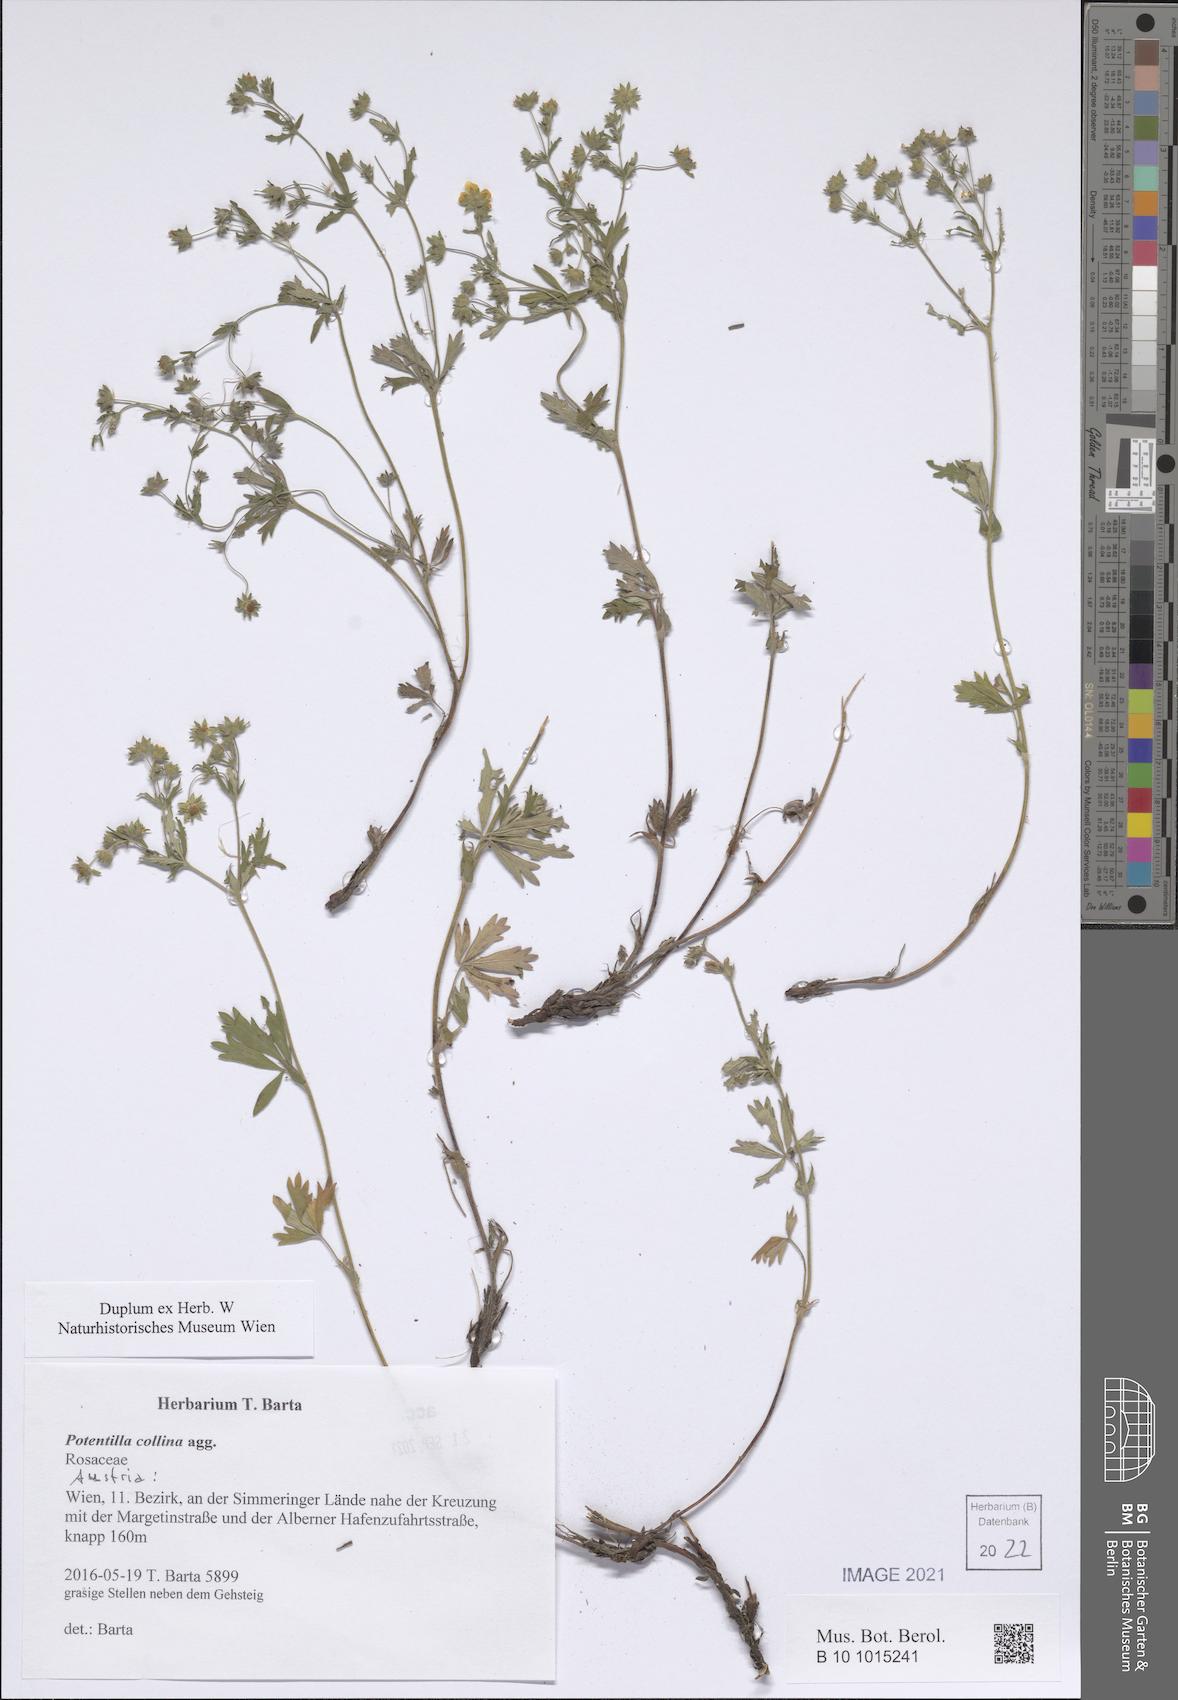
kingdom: Plantae
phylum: Tracheophyta
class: Magnoliopsida
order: Rosales
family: Rosaceae
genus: Potentilla
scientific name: Potentilla collina
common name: Palmleaf cinquefoil
